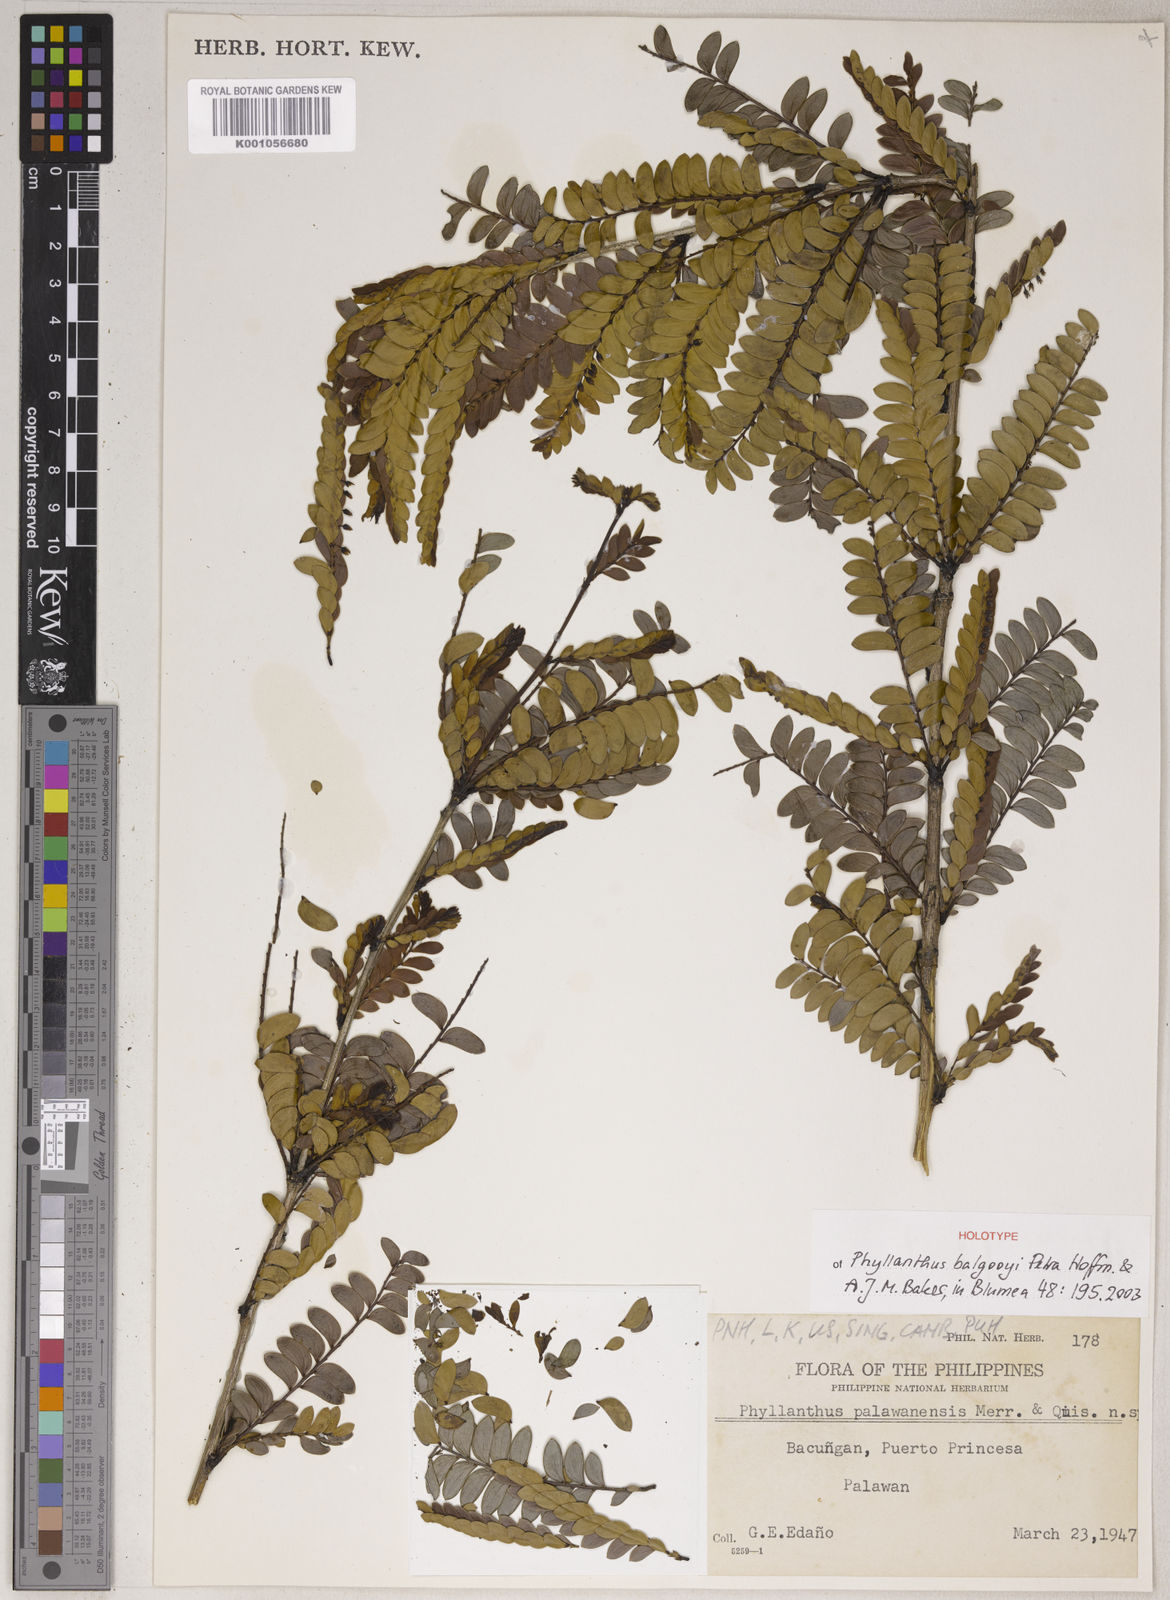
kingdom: Plantae
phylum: Tracheophyta
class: Magnoliopsida
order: Malpighiales
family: Phyllanthaceae
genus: Phyllanthus
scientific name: Phyllanthus balgooyi
